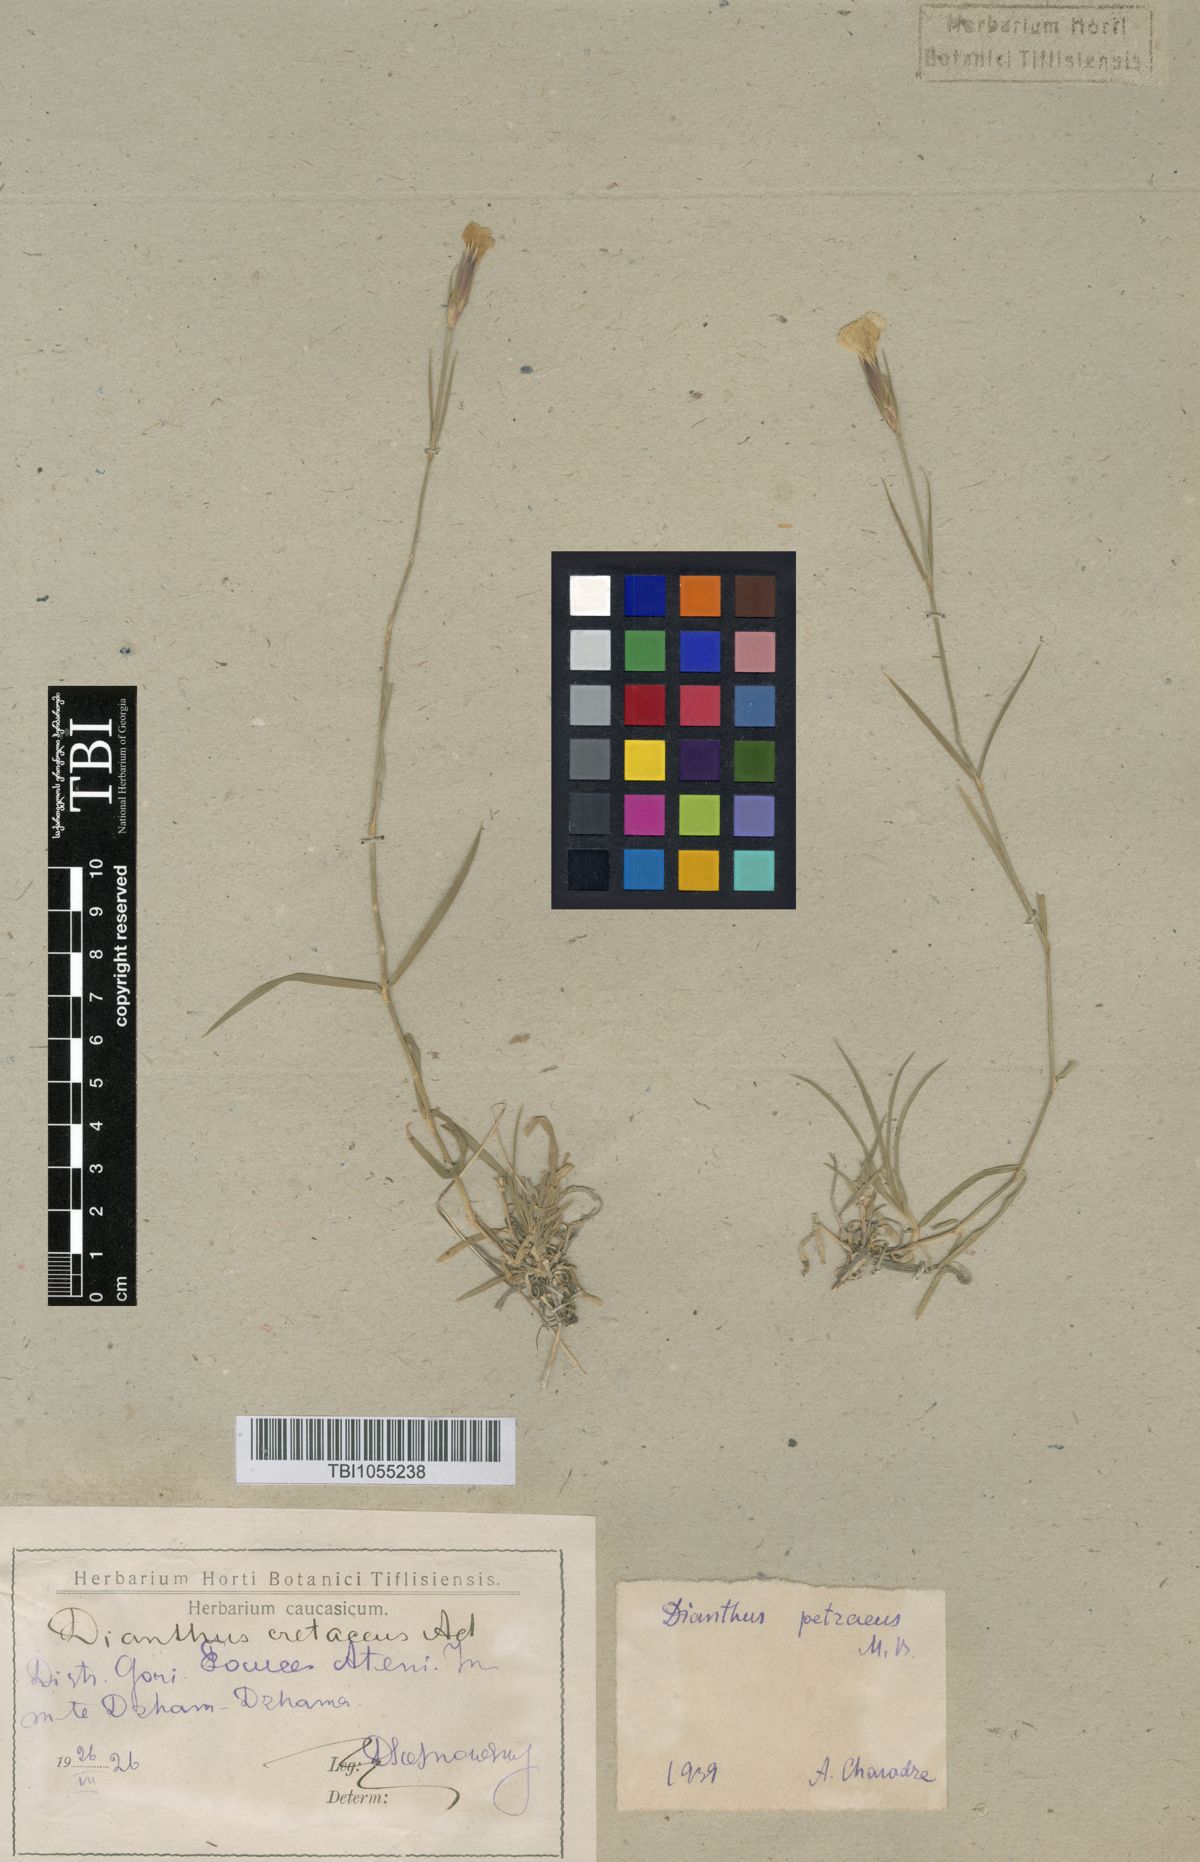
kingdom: Plantae
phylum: Tracheophyta
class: Magnoliopsida
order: Caryophyllales
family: Caryophyllaceae
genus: Dianthus
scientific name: Dianthus cretaceus
